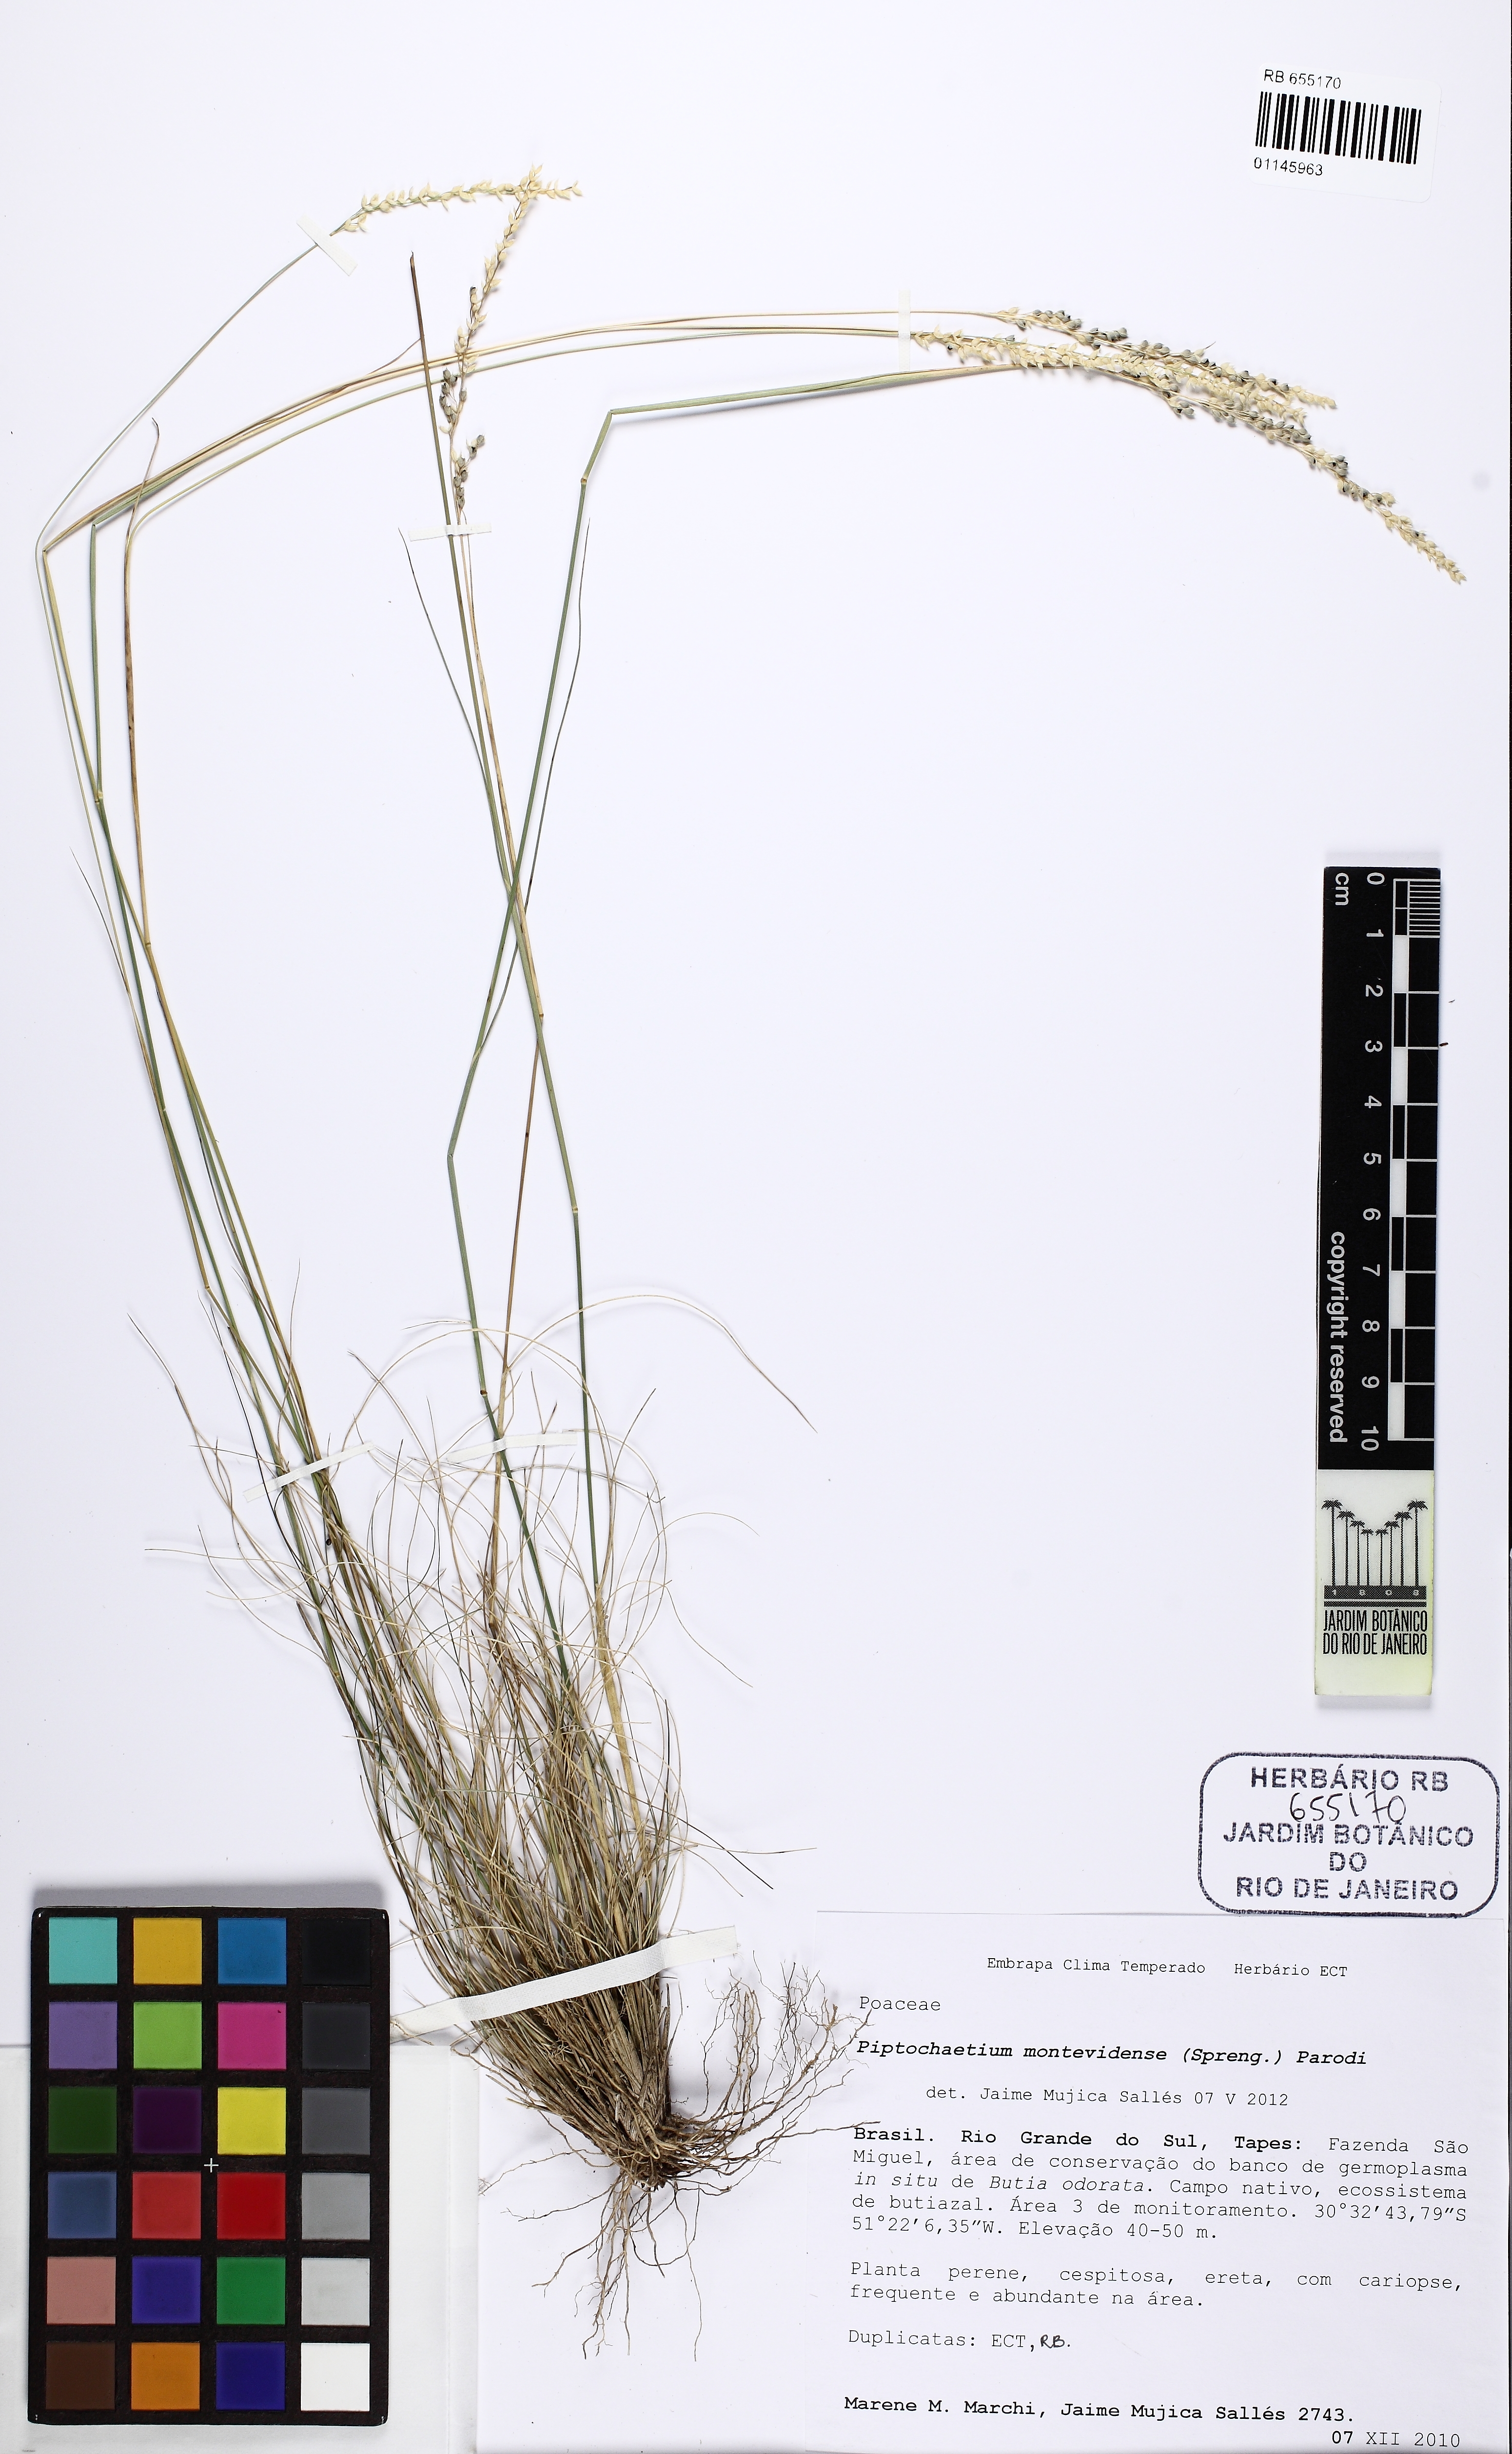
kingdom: Plantae
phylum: Tracheophyta
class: Liliopsida
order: Poales
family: Poaceae
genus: Piptochaetium
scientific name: Piptochaetium montevidense
